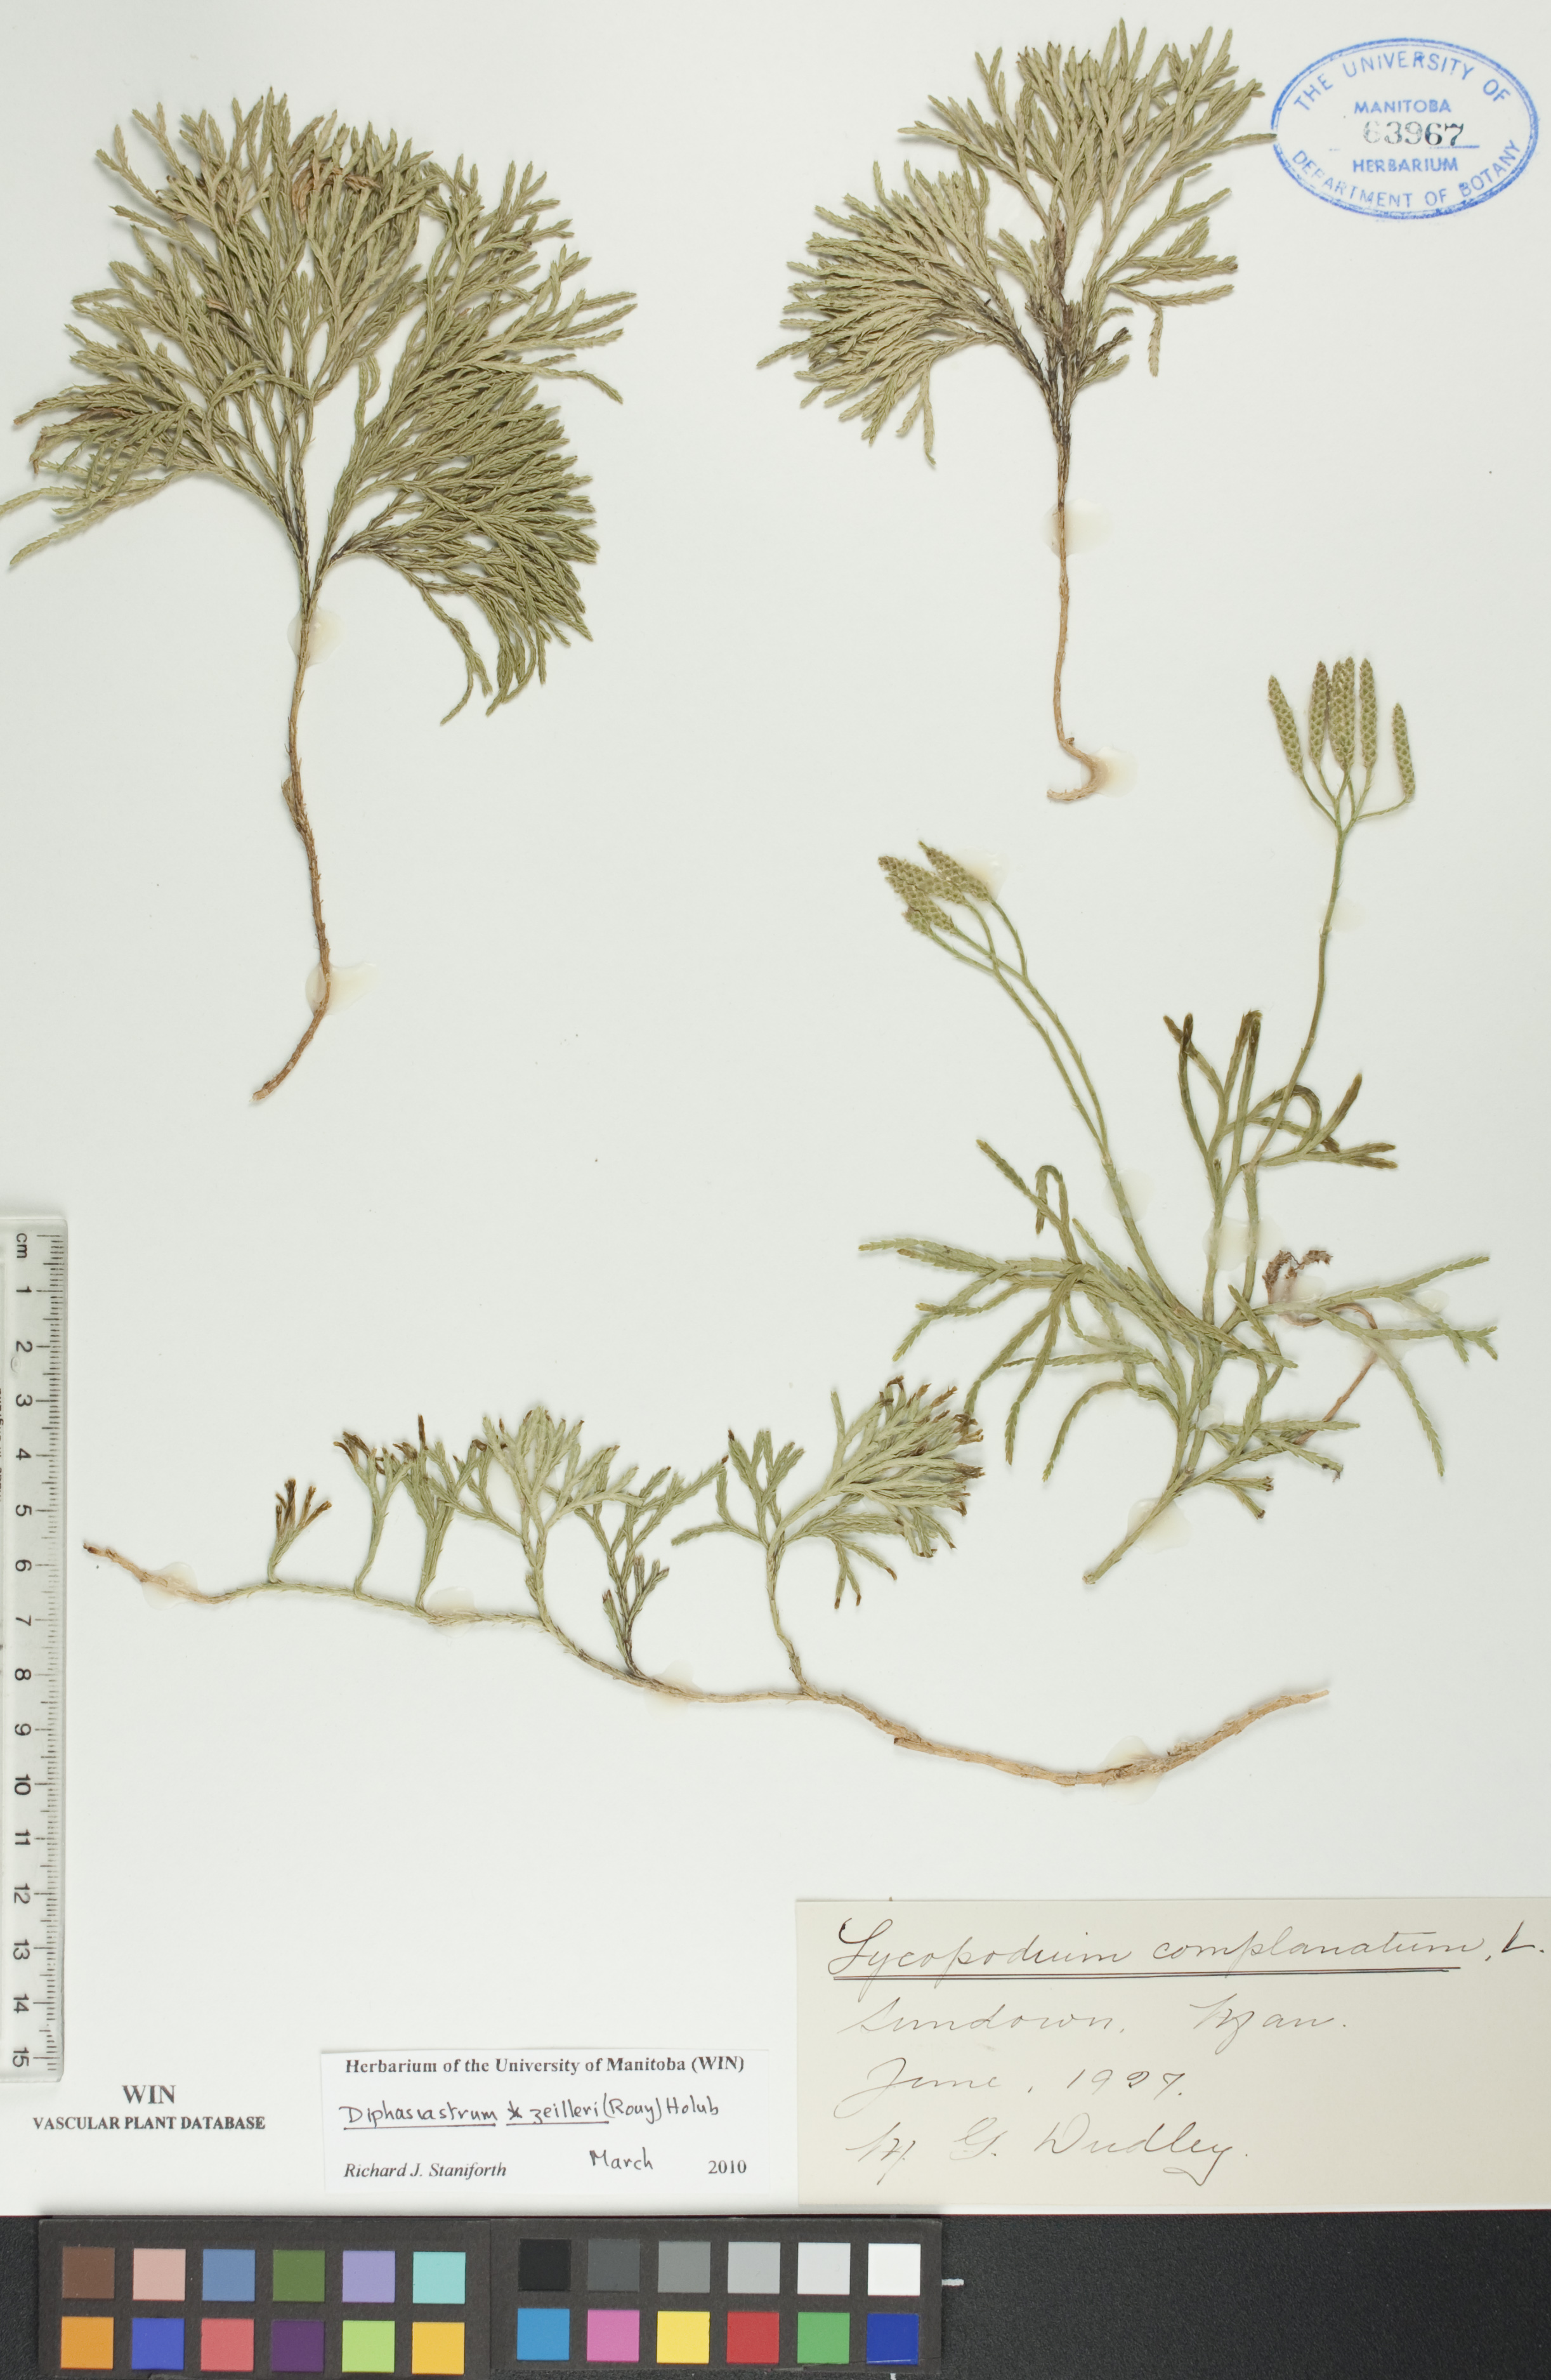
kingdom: Plantae
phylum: Tracheophyta
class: Lycopodiopsida
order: Lycopodiales
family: Lycopodiaceae
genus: Diphasiastrum
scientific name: Diphasiastrum zeilleri
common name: Zeiller's clubmoss
